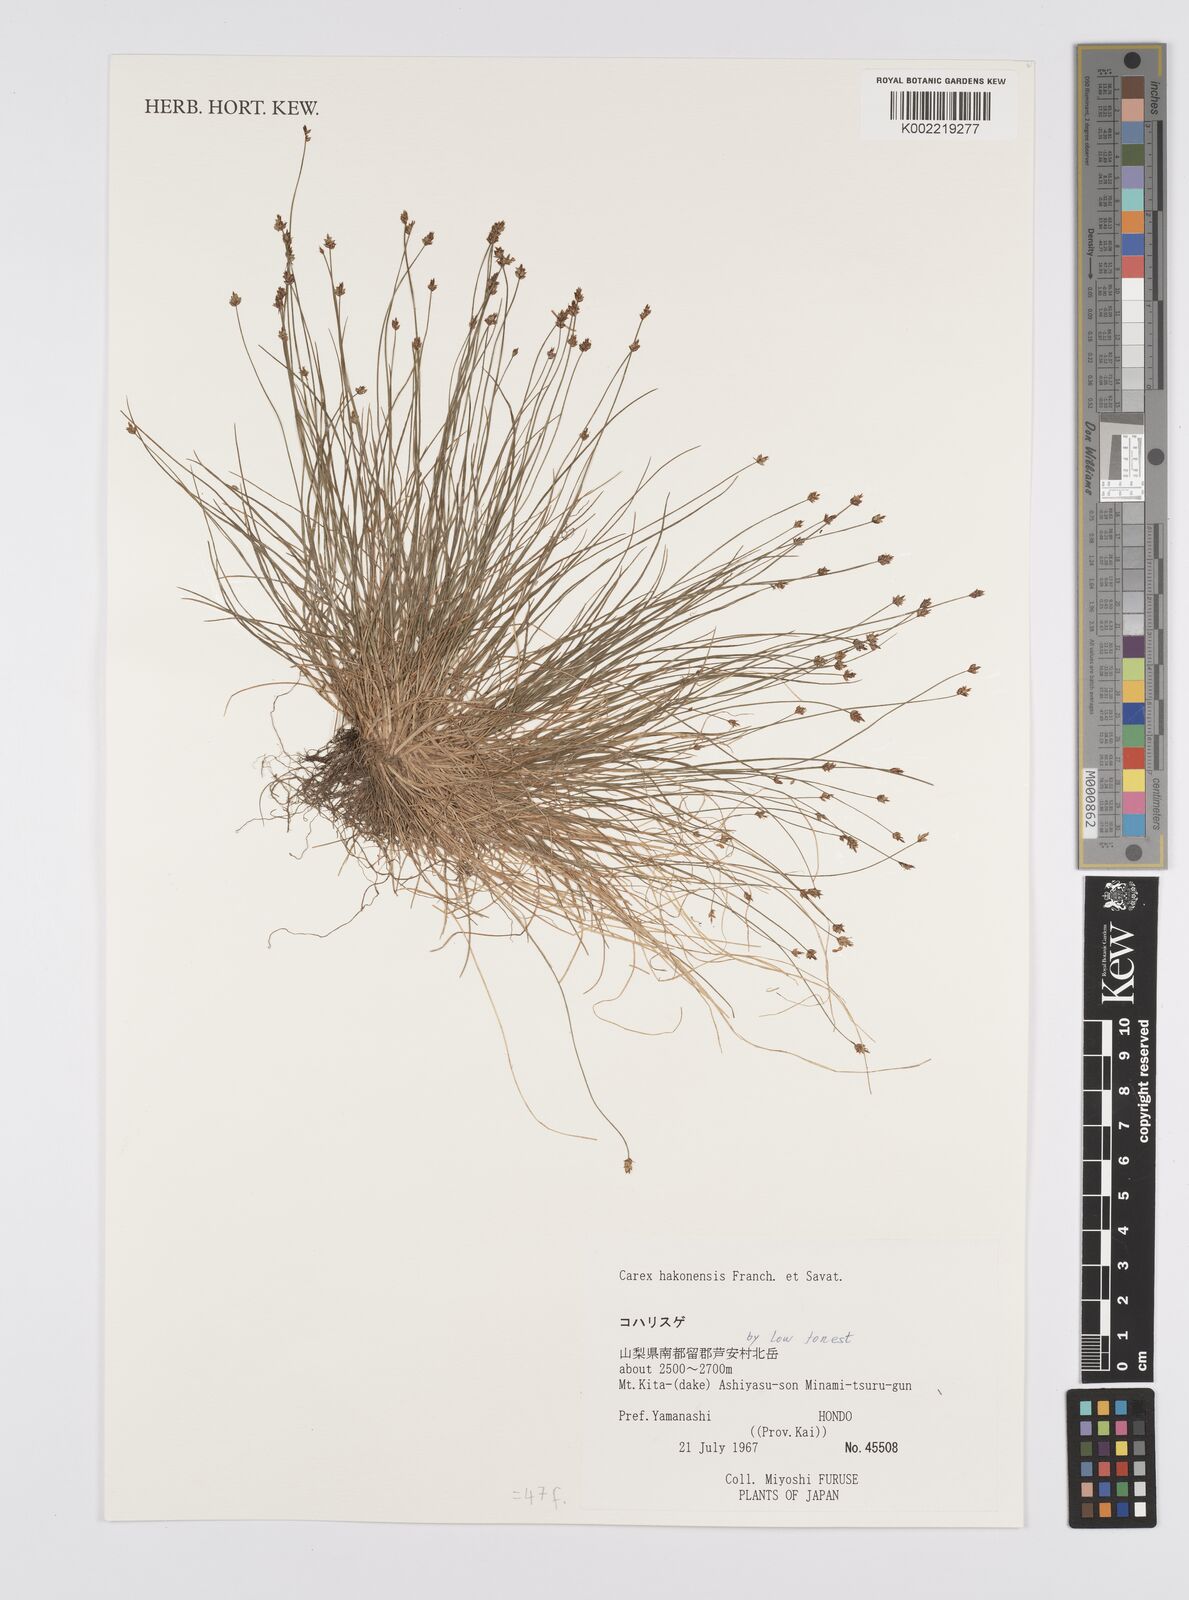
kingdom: Plantae
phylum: Tracheophyta
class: Liliopsida
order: Poales
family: Cyperaceae
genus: Carex
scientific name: Carex onoei
